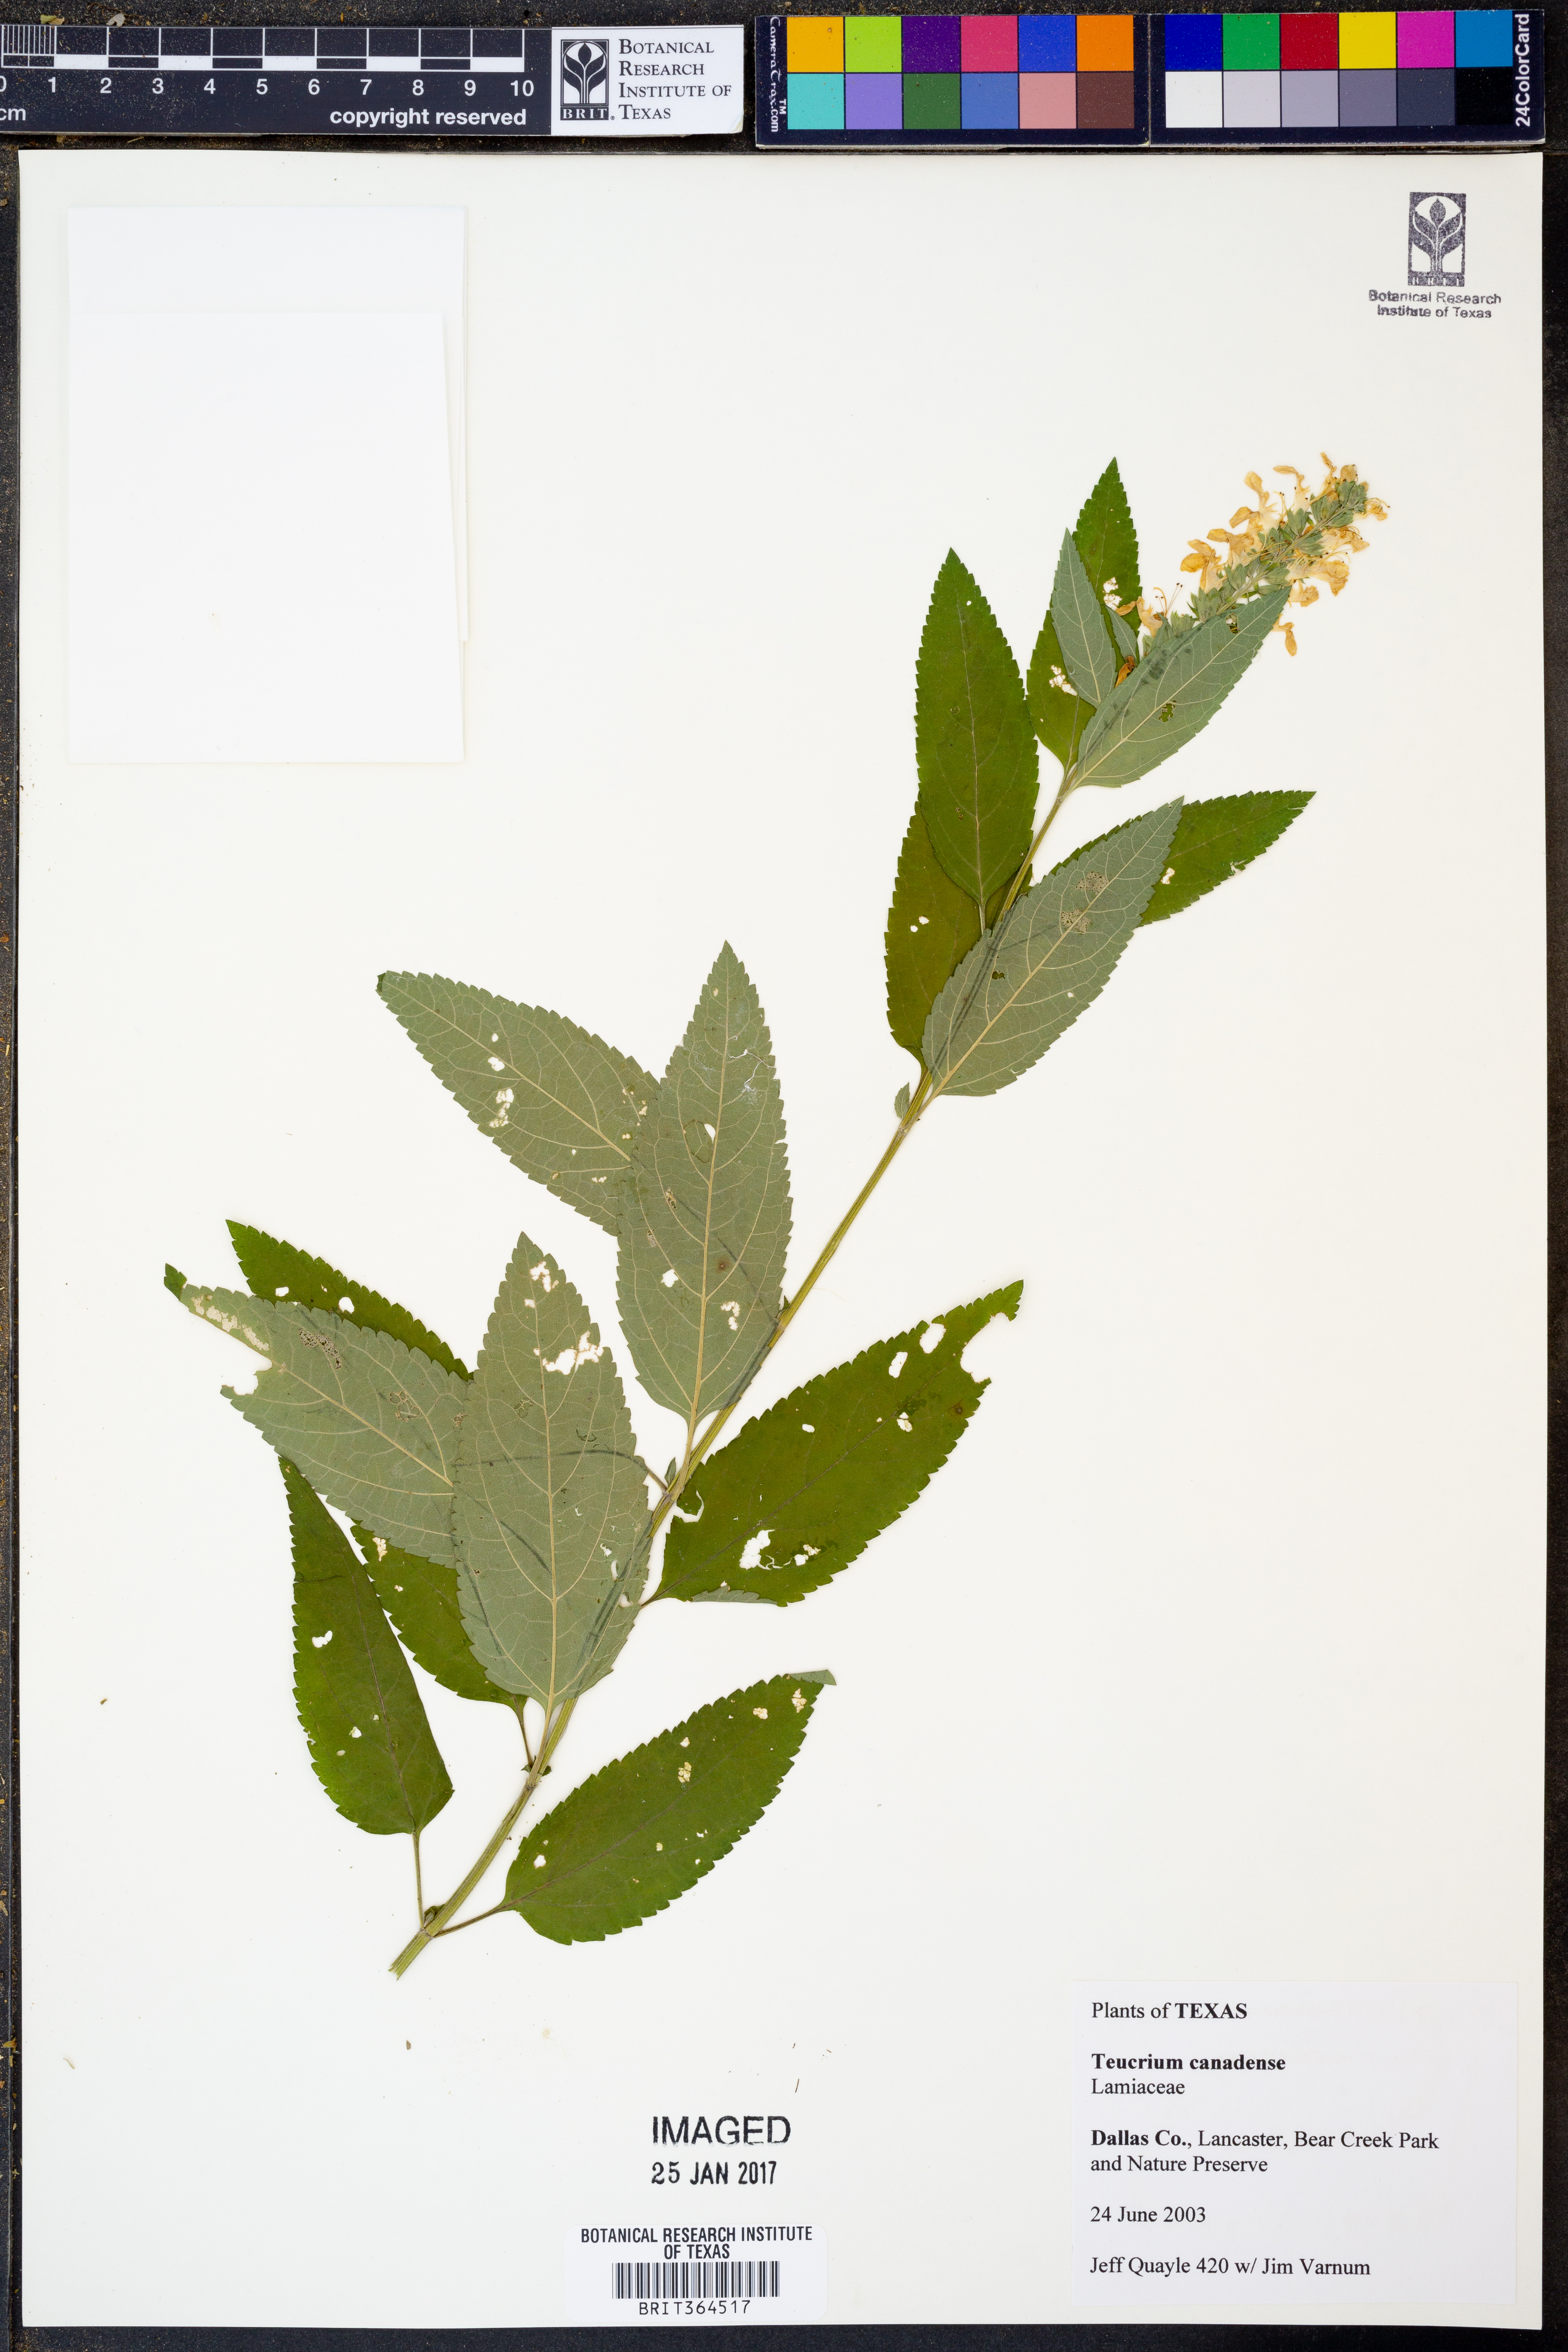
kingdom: Plantae
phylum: Tracheophyta
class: Magnoliopsida
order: Lamiales
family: Lamiaceae
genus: Teucrium
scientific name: Teucrium canadense
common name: American germander
